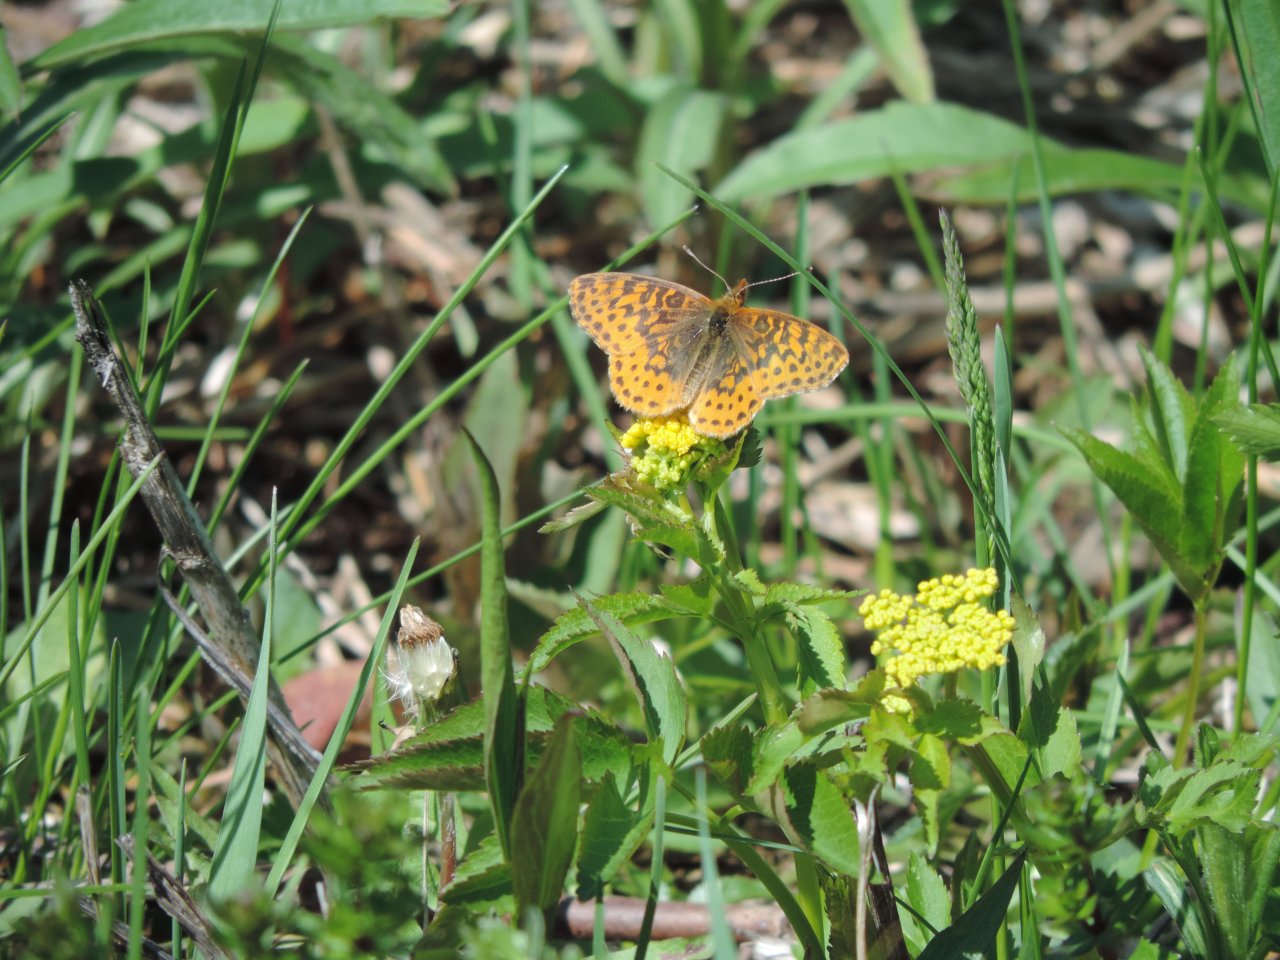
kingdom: Animalia
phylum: Arthropoda
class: Insecta
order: Lepidoptera
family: Nymphalidae
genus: Clossiana
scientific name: Clossiana toddi
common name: Meadow Fritillary
